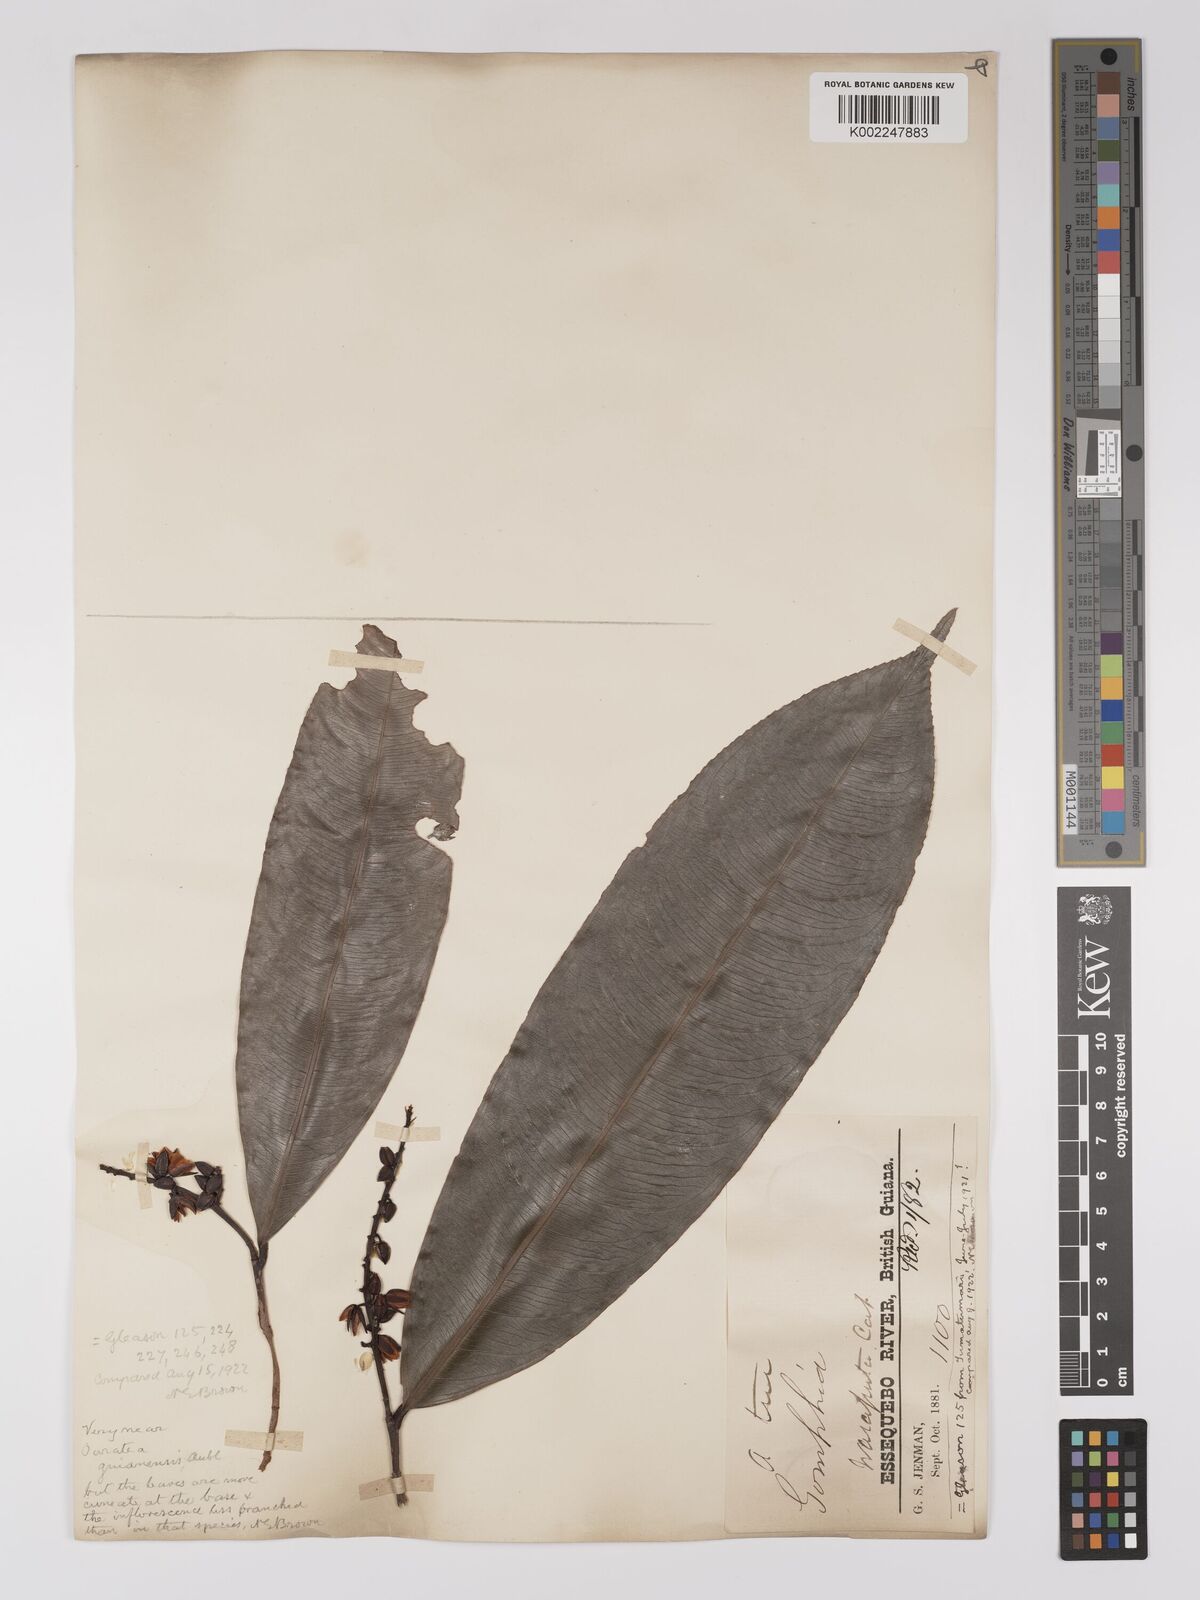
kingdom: Plantae
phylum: Tracheophyta
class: Magnoliopsida
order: Malpighiales
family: Ochnaceae
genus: Ouratea
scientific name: Ouratea longifolia
